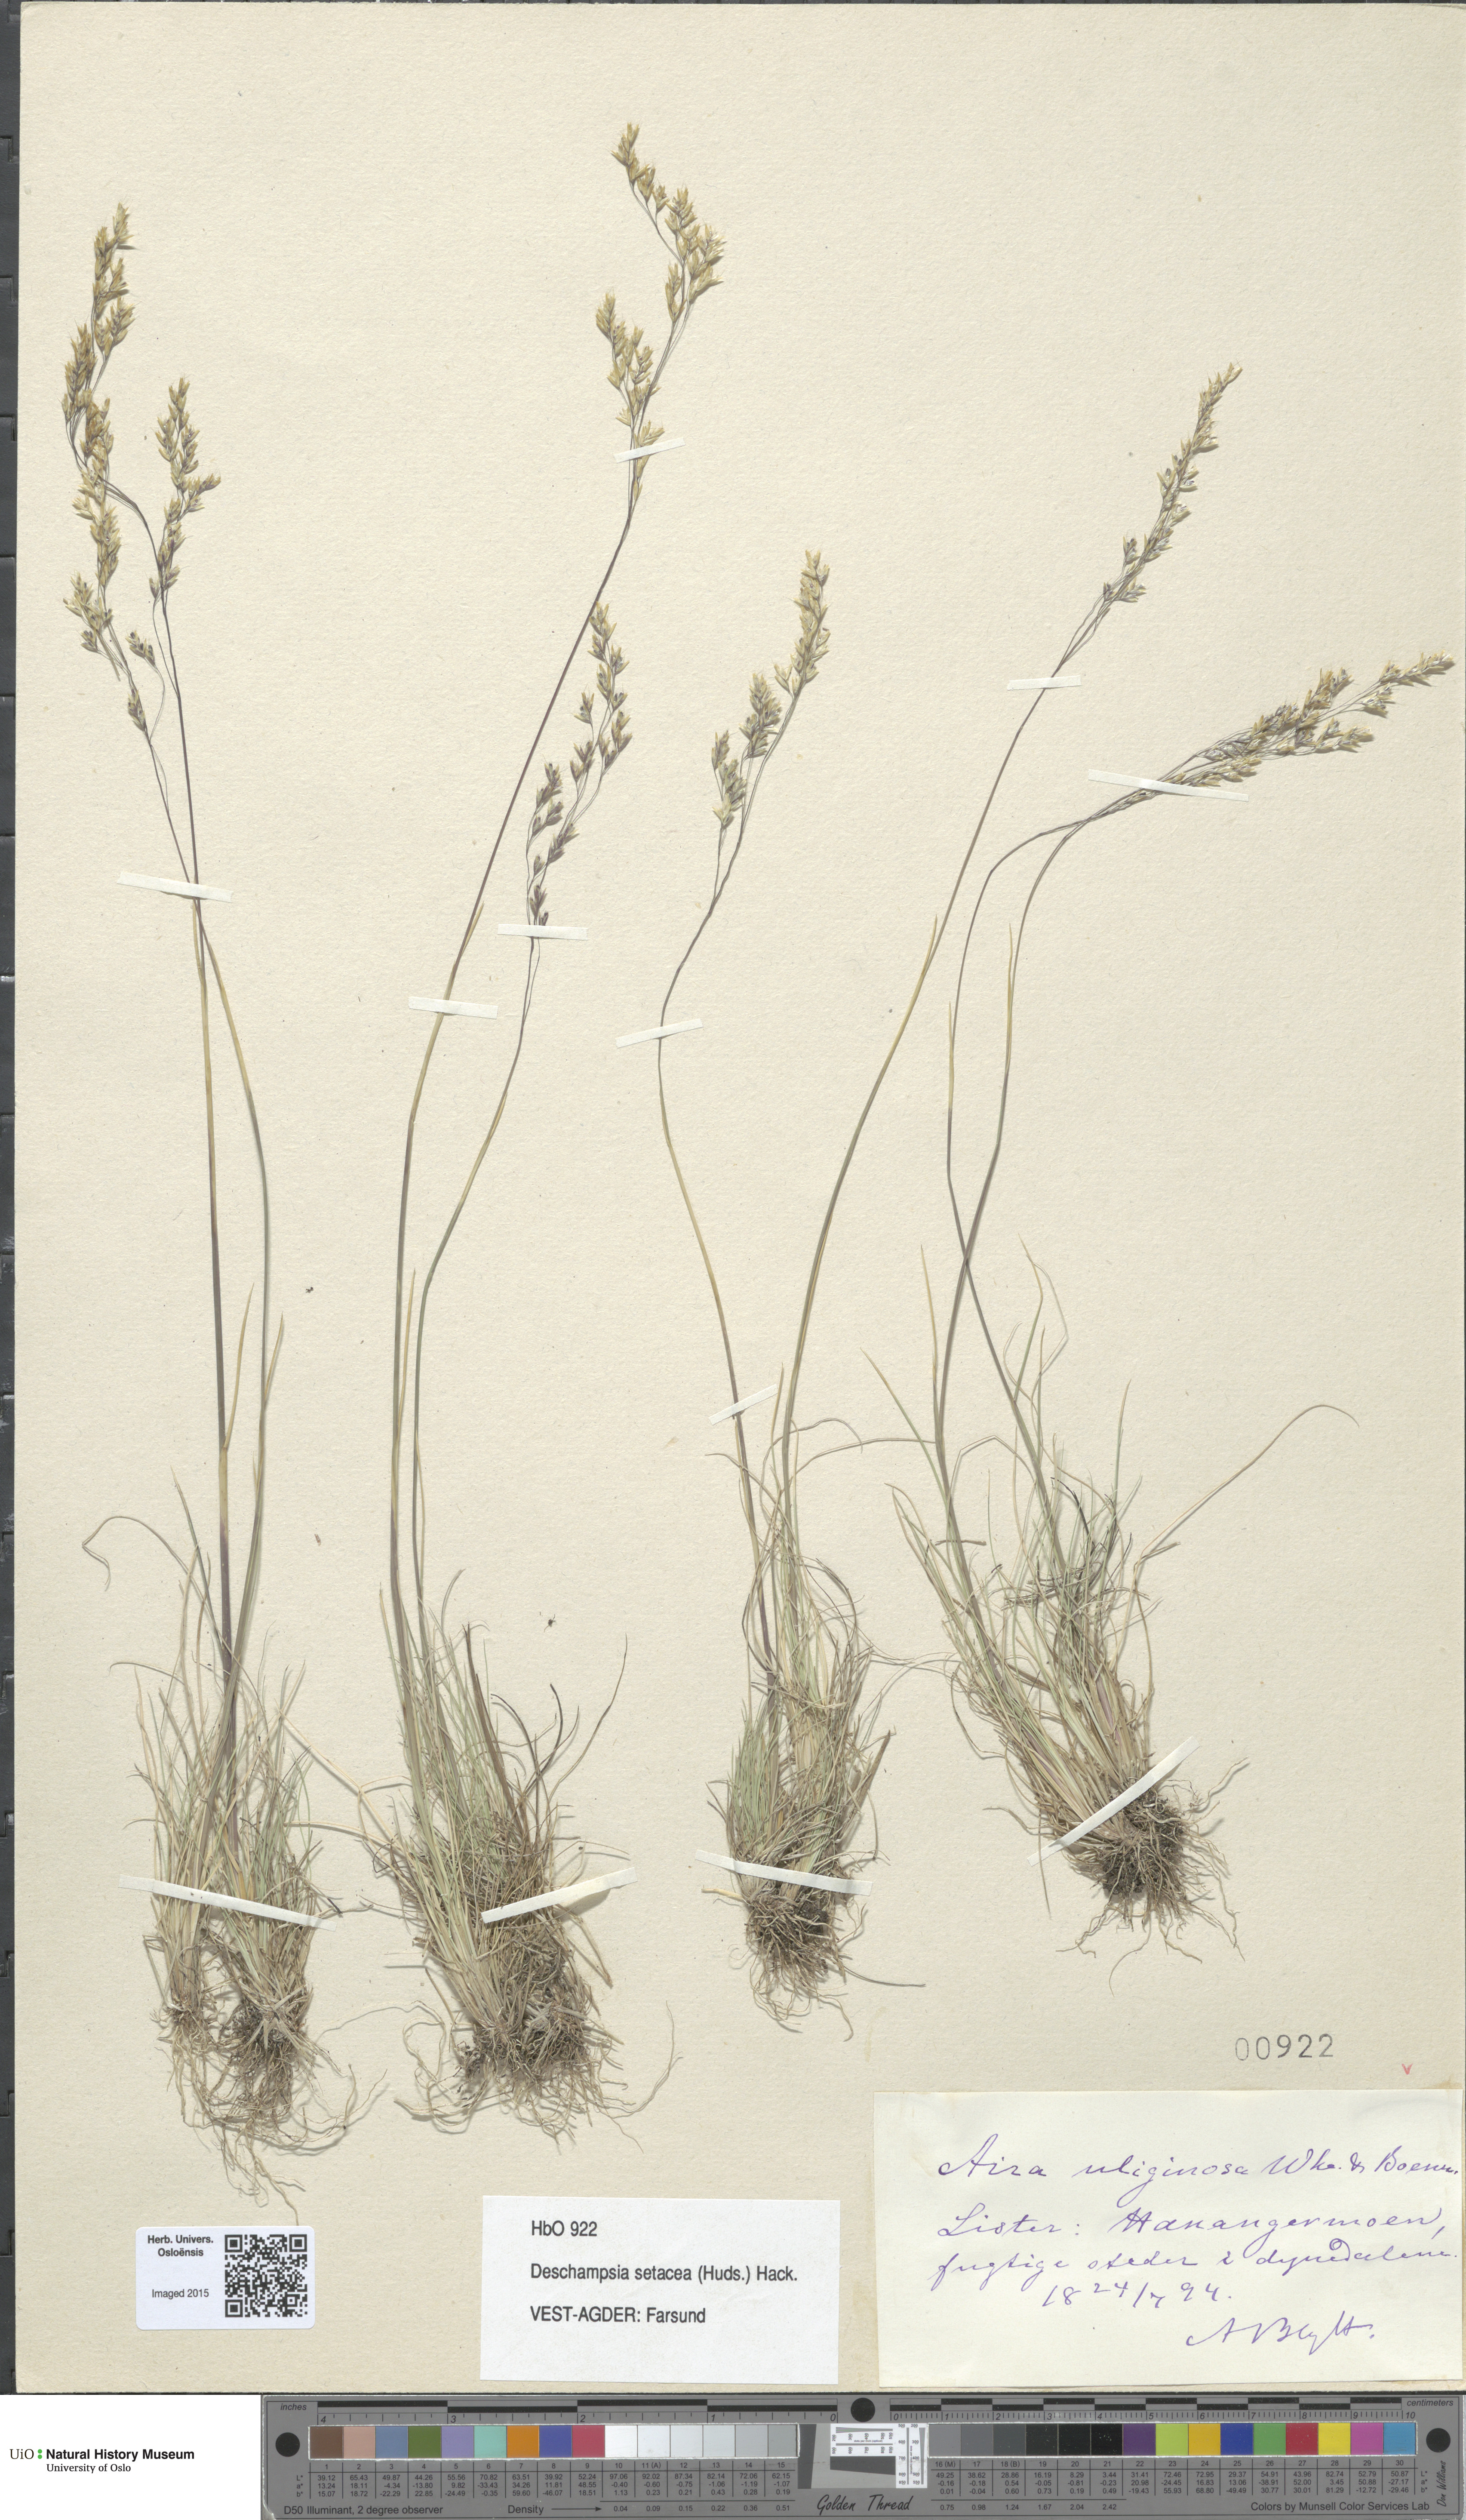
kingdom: Plantae
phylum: Tracheophyta
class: Liliopsida
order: Poales
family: Poaceae
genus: Deschampsia
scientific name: Deschampsia setacea
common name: Bog hair-grass
